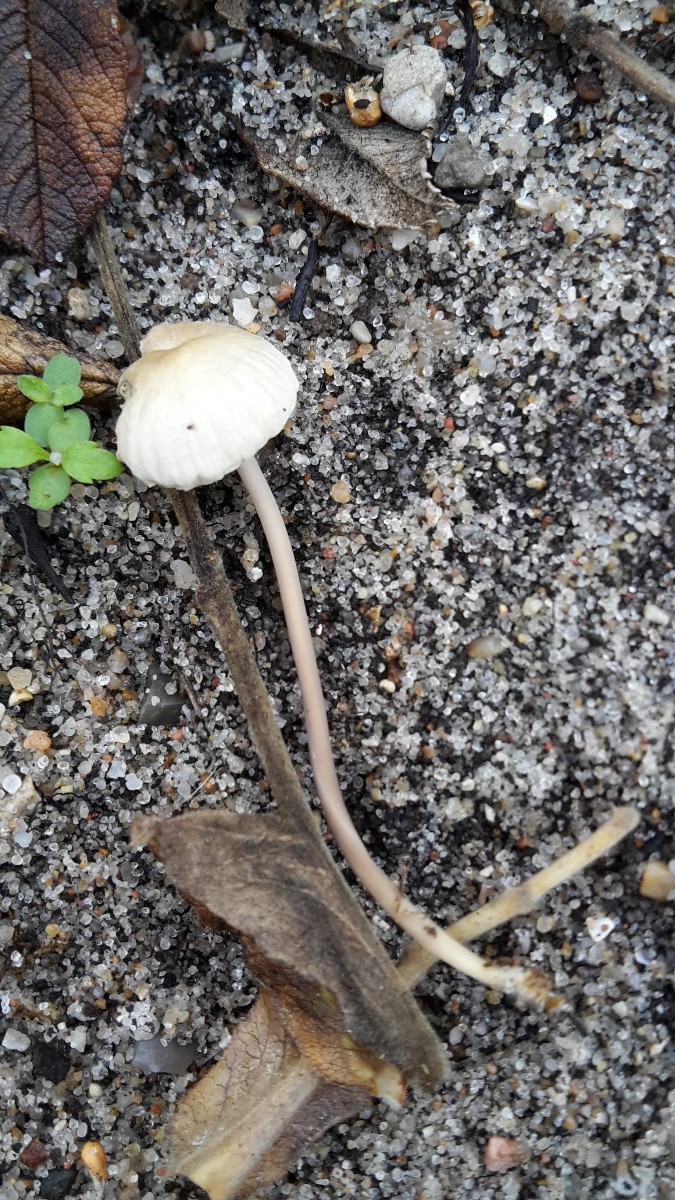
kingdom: Fungi
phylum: Basidiomycota
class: Agaricomycetes
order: Agaricales
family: Mycenaceae
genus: Mycena
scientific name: Mycena
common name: huesvamp
